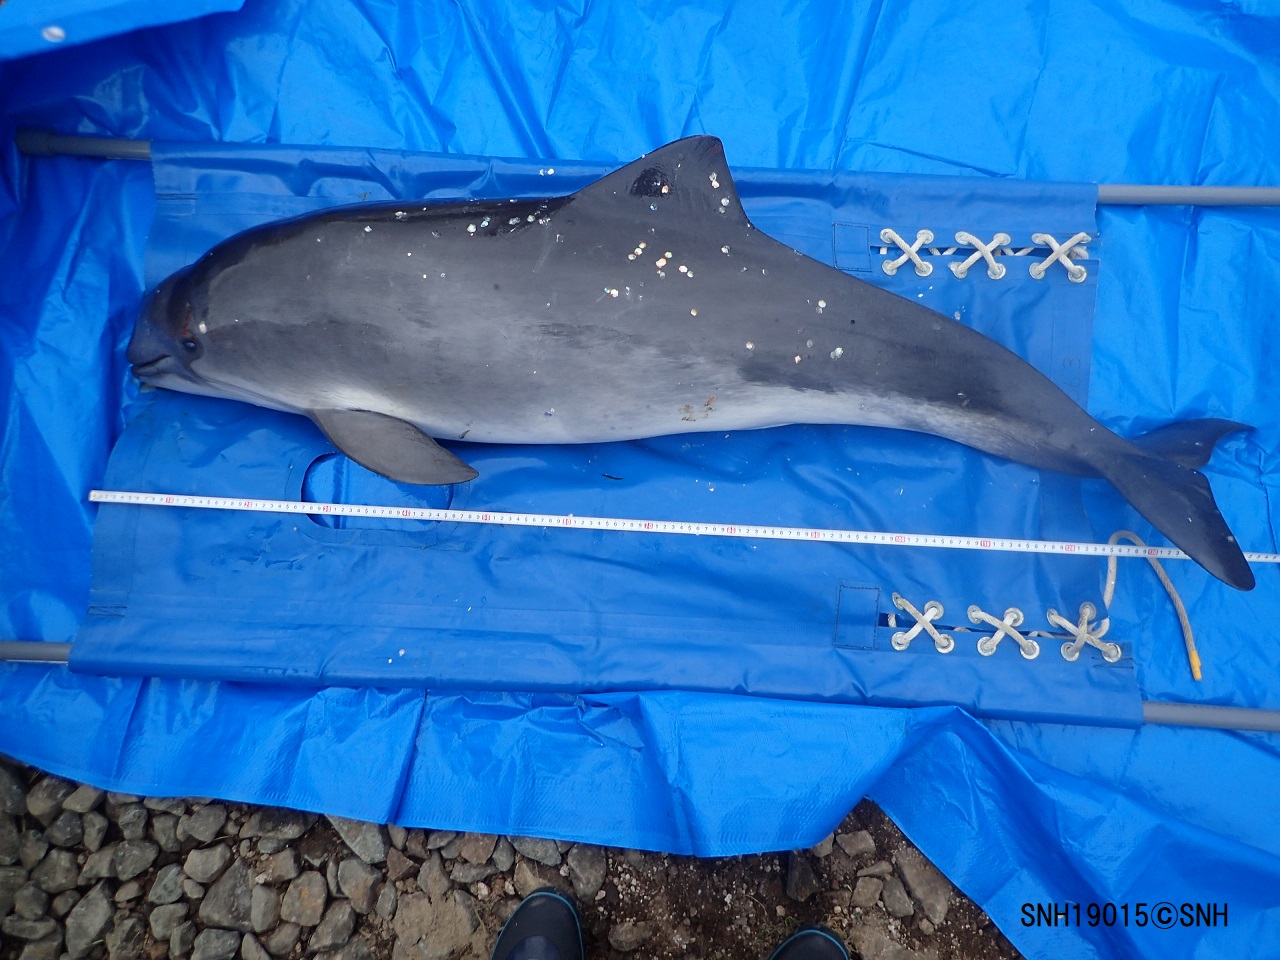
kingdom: Animalia
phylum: Chordata
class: Mammalia
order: Cetacea
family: Phocoenidae
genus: Phocoena
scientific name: Phocoena phocoena
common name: Harbour porpoise
